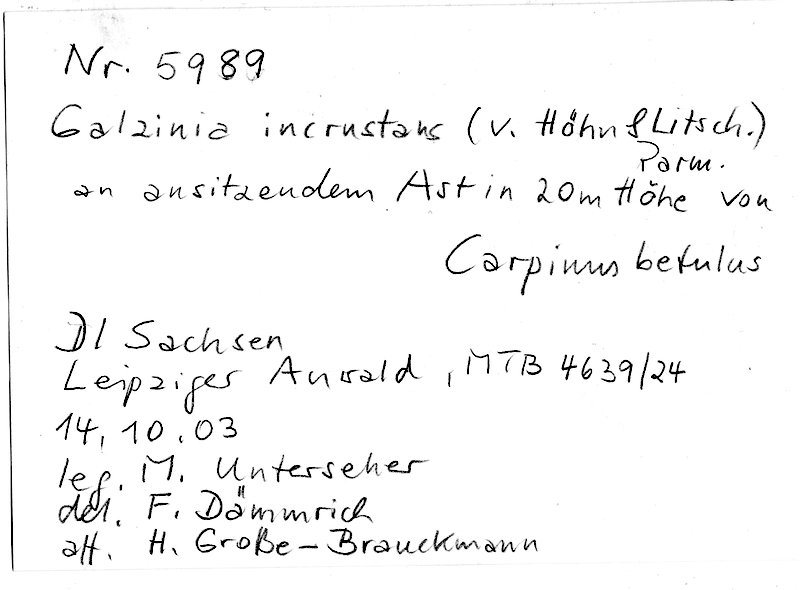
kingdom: Fungi
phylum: Basidiomycota
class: Agaricomycetes
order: Corticiales
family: Corticiaceae
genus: Mycobernardia
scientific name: Mycobernardia incrustans
